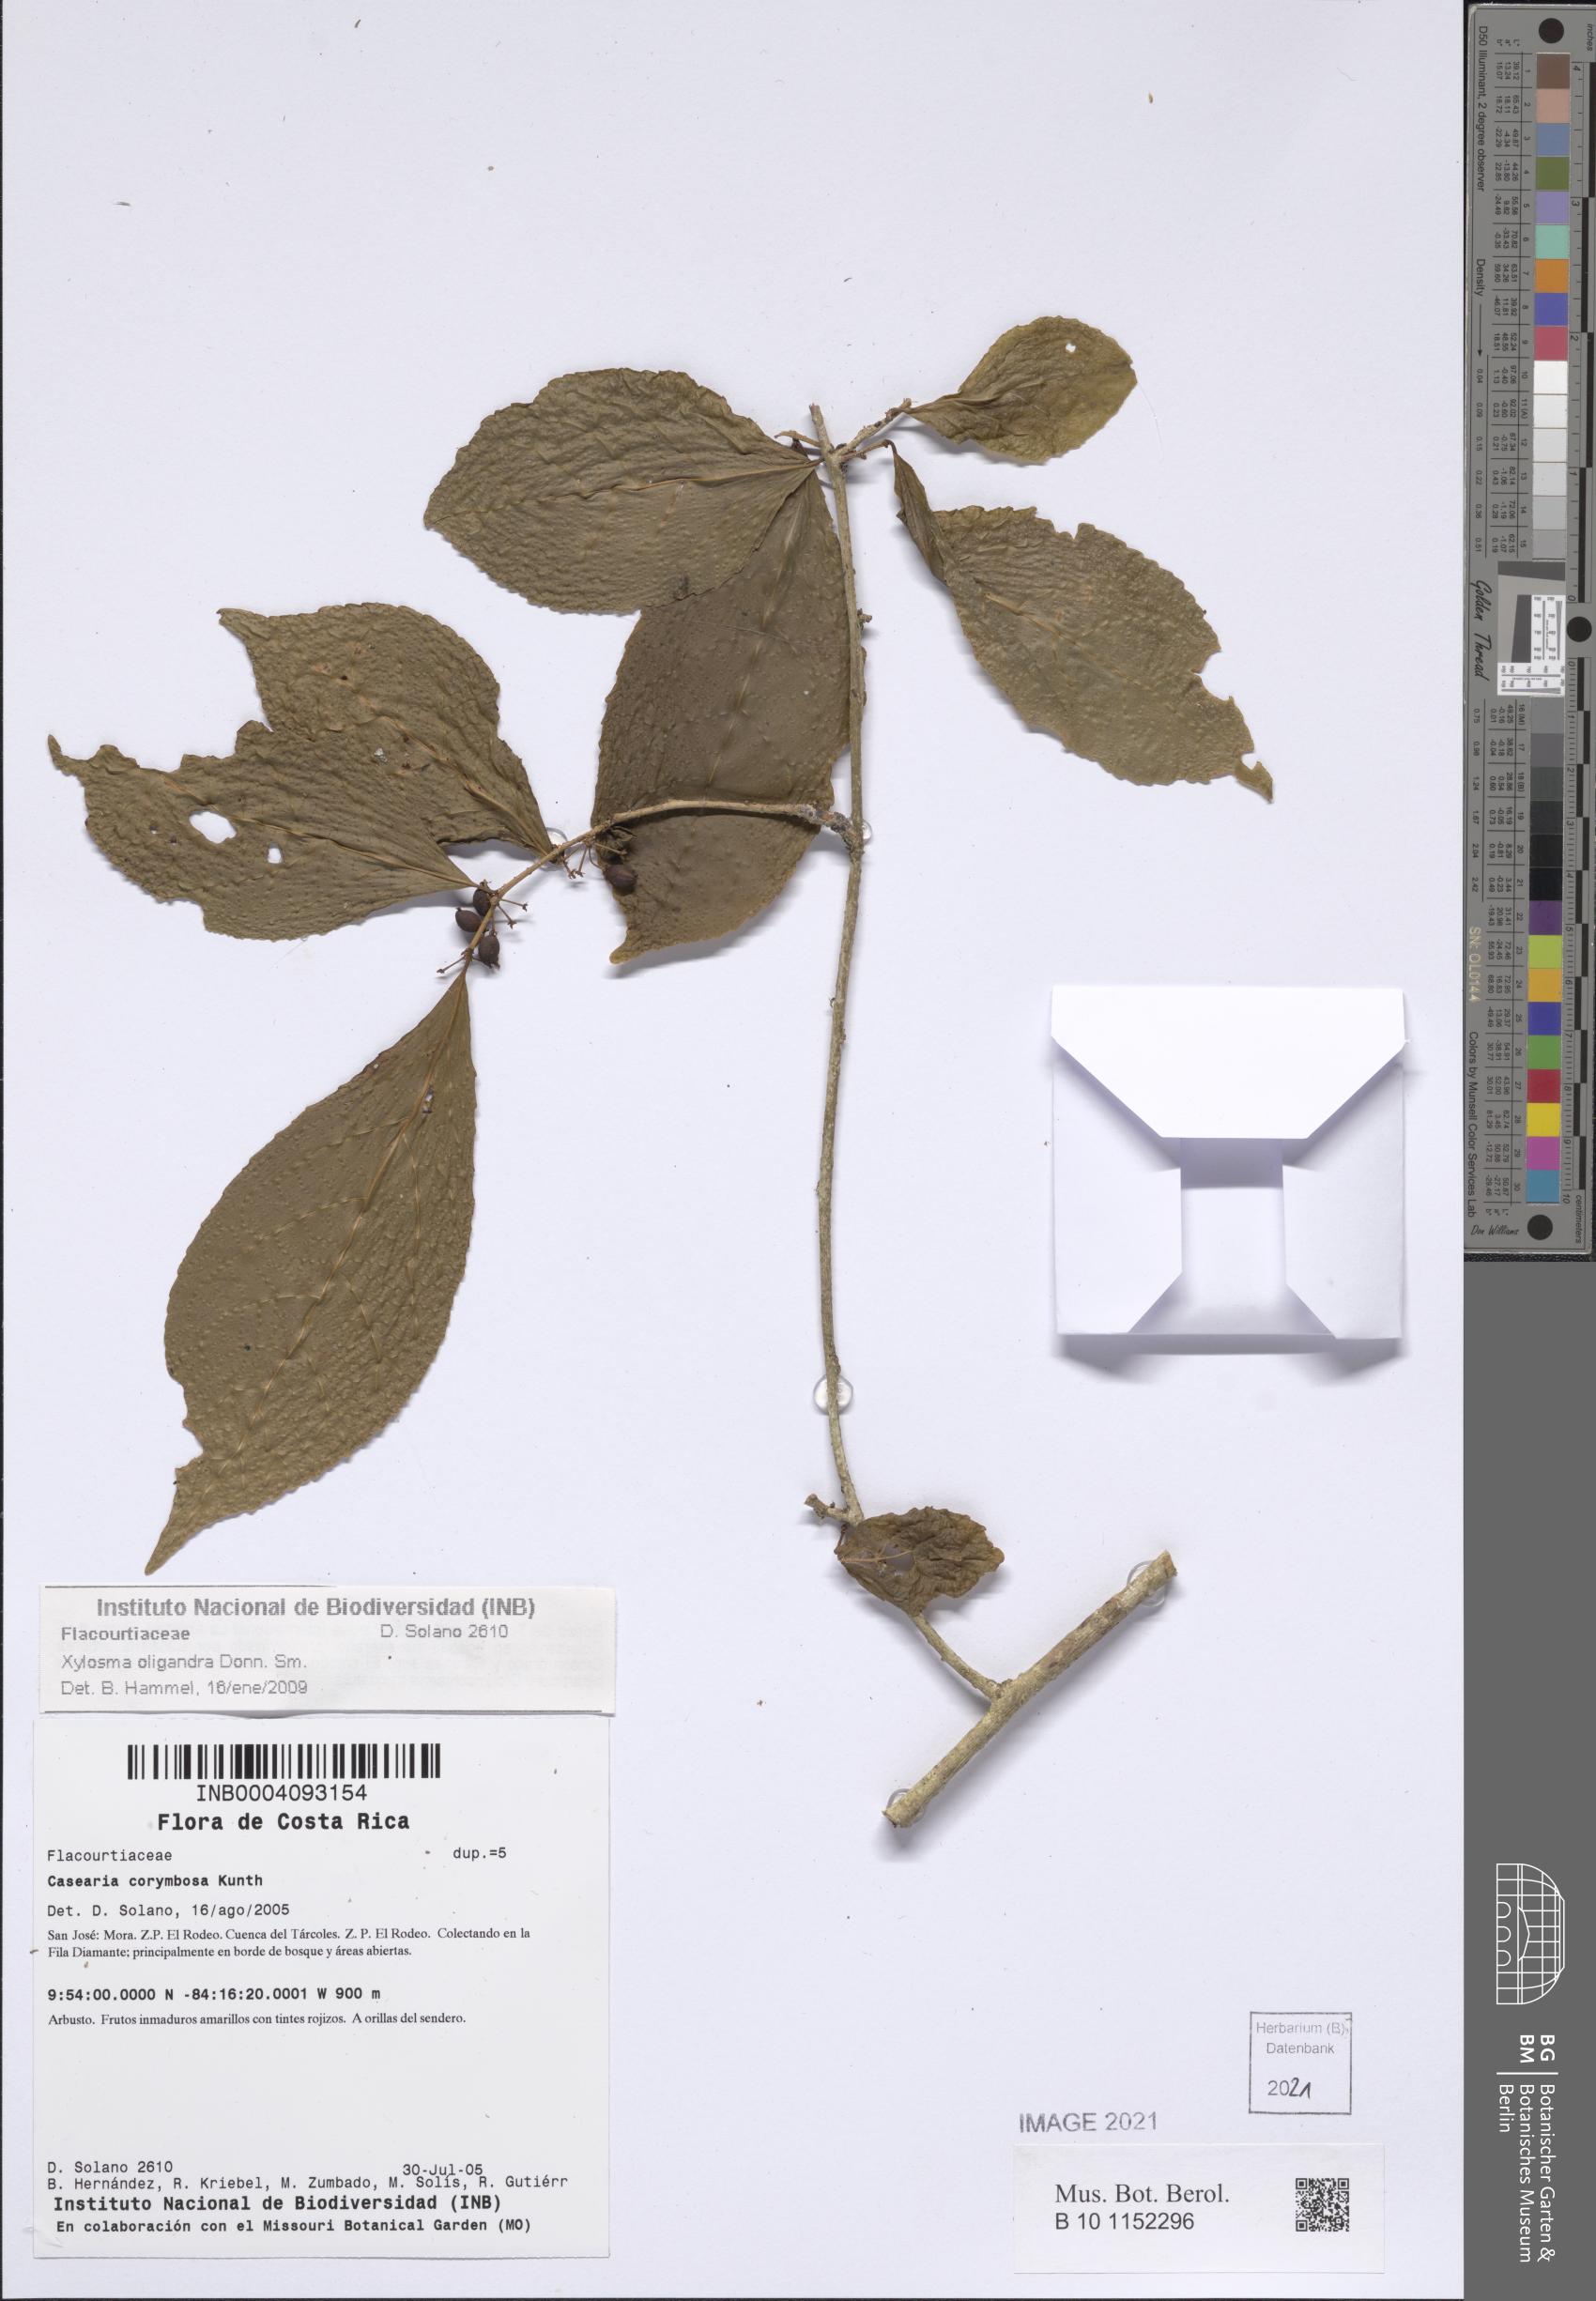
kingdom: Plantae
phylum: Tracheophyta
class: Magnoliopsida
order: Malpighiales
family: Salicaceae
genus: Xylosma
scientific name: Xylosma oligandra
